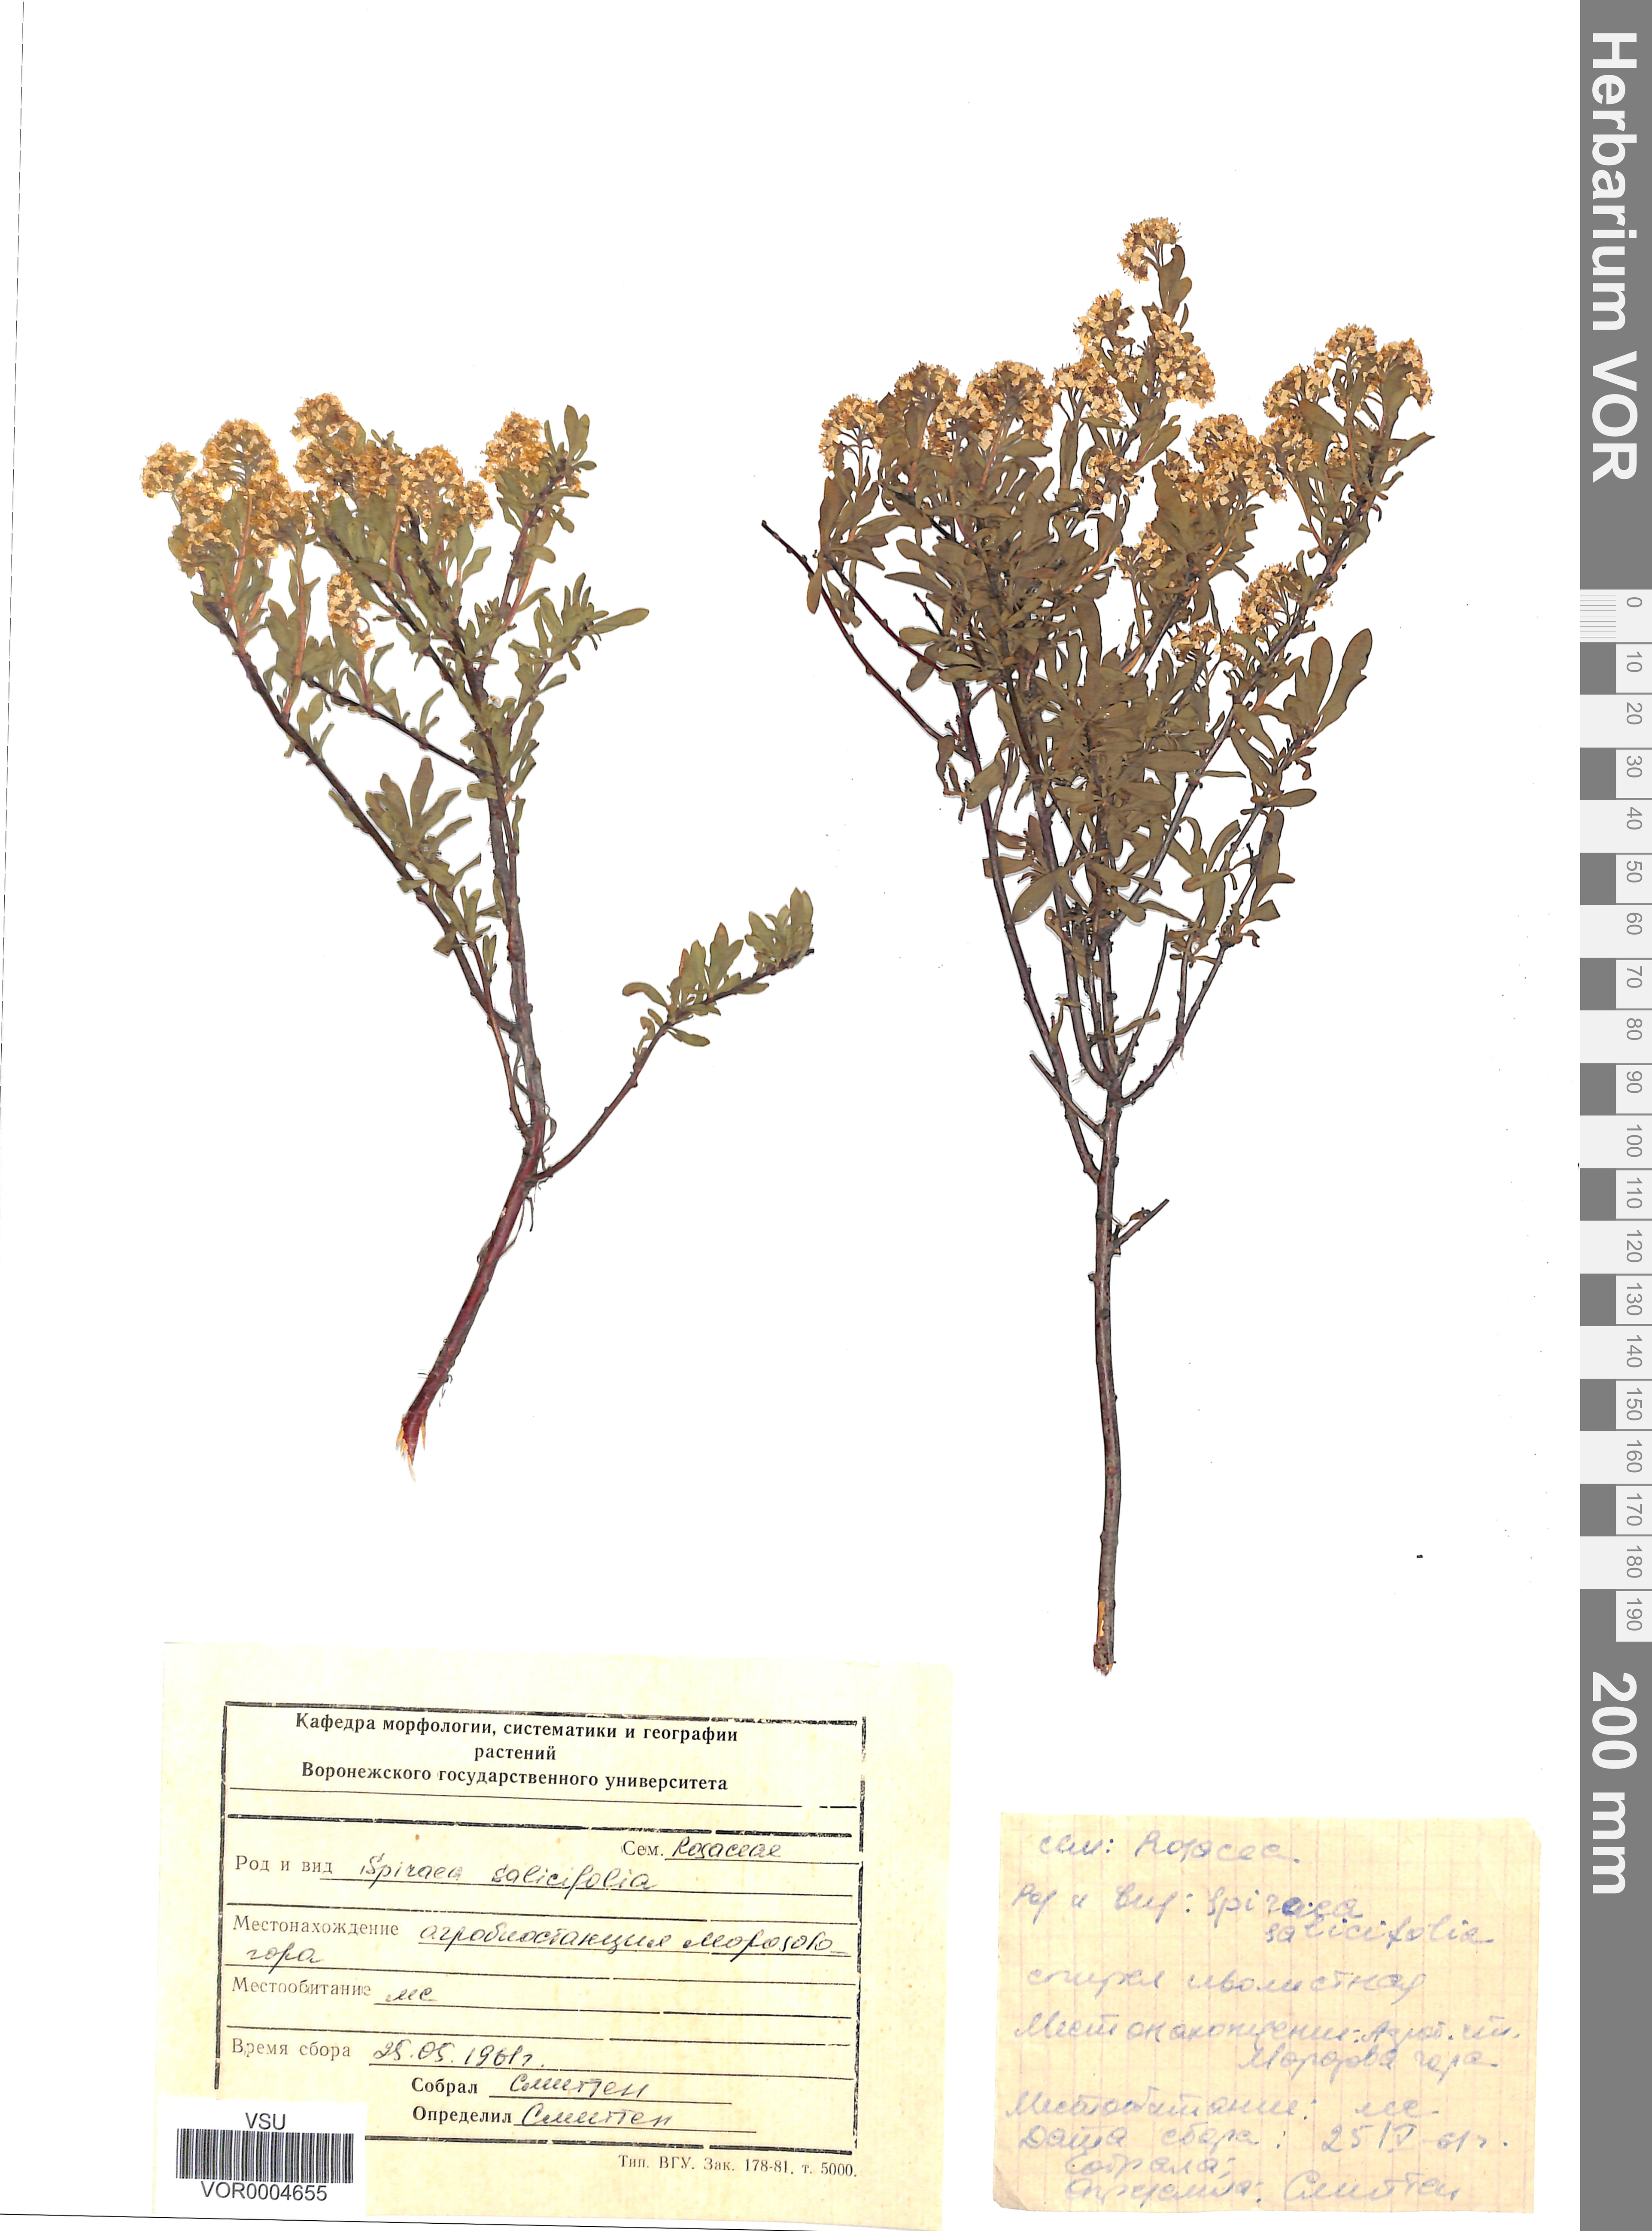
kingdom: Plantae
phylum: Tracheophyta
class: Magnoliopsida
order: Rosales
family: Rosaceae
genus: Spiraea
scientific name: Spiraea salicifolia
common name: Bridewort
